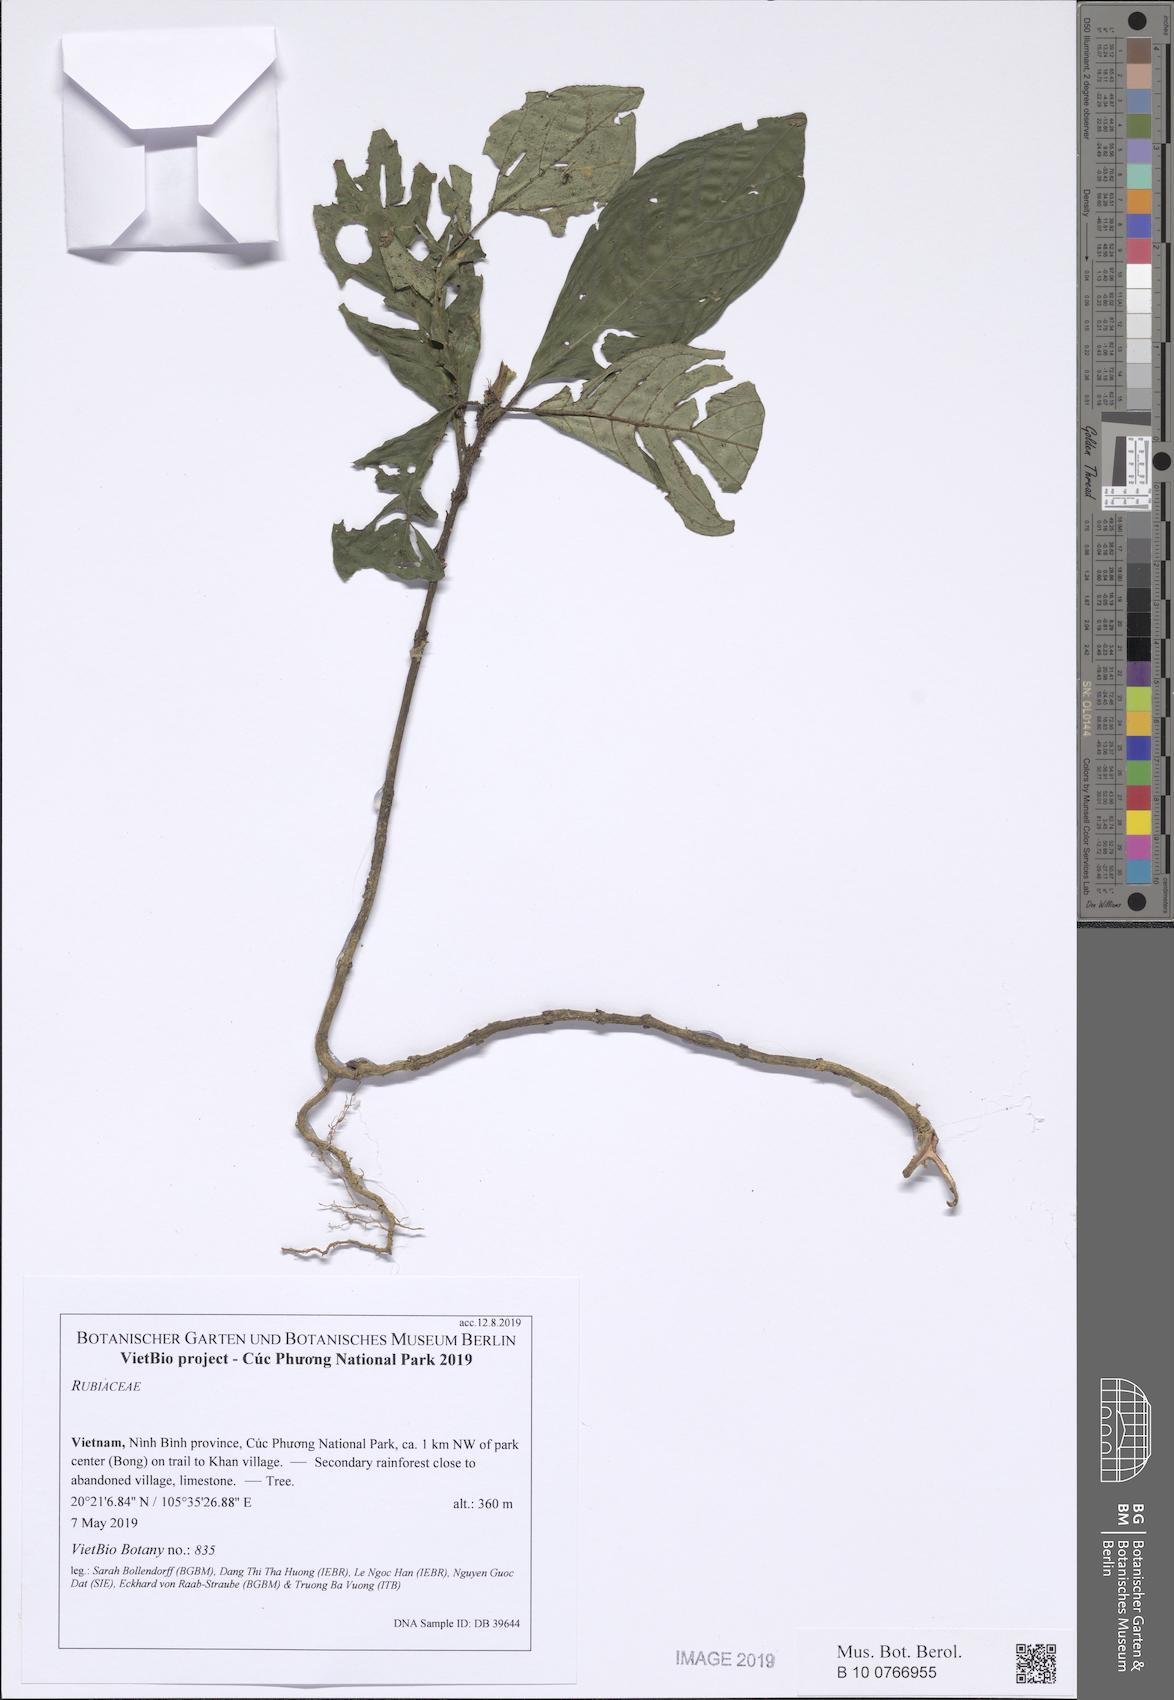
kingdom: Plantae
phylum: Tracheophyta
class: Magnoliopsida
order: Gentianales
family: Rubiaceae
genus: Psychotria
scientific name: Psychotria
